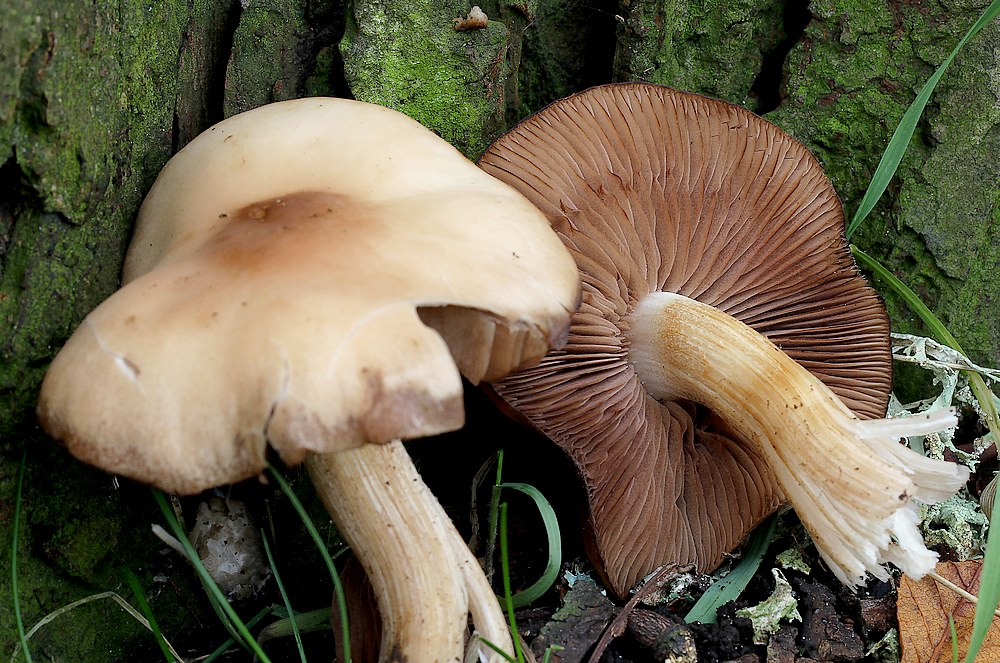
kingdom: Fungi
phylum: Basidiomycota
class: Agaricomycetes
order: Agaricales
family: Psathyrellaceae
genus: Homophron
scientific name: Homophron
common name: mørkhat
